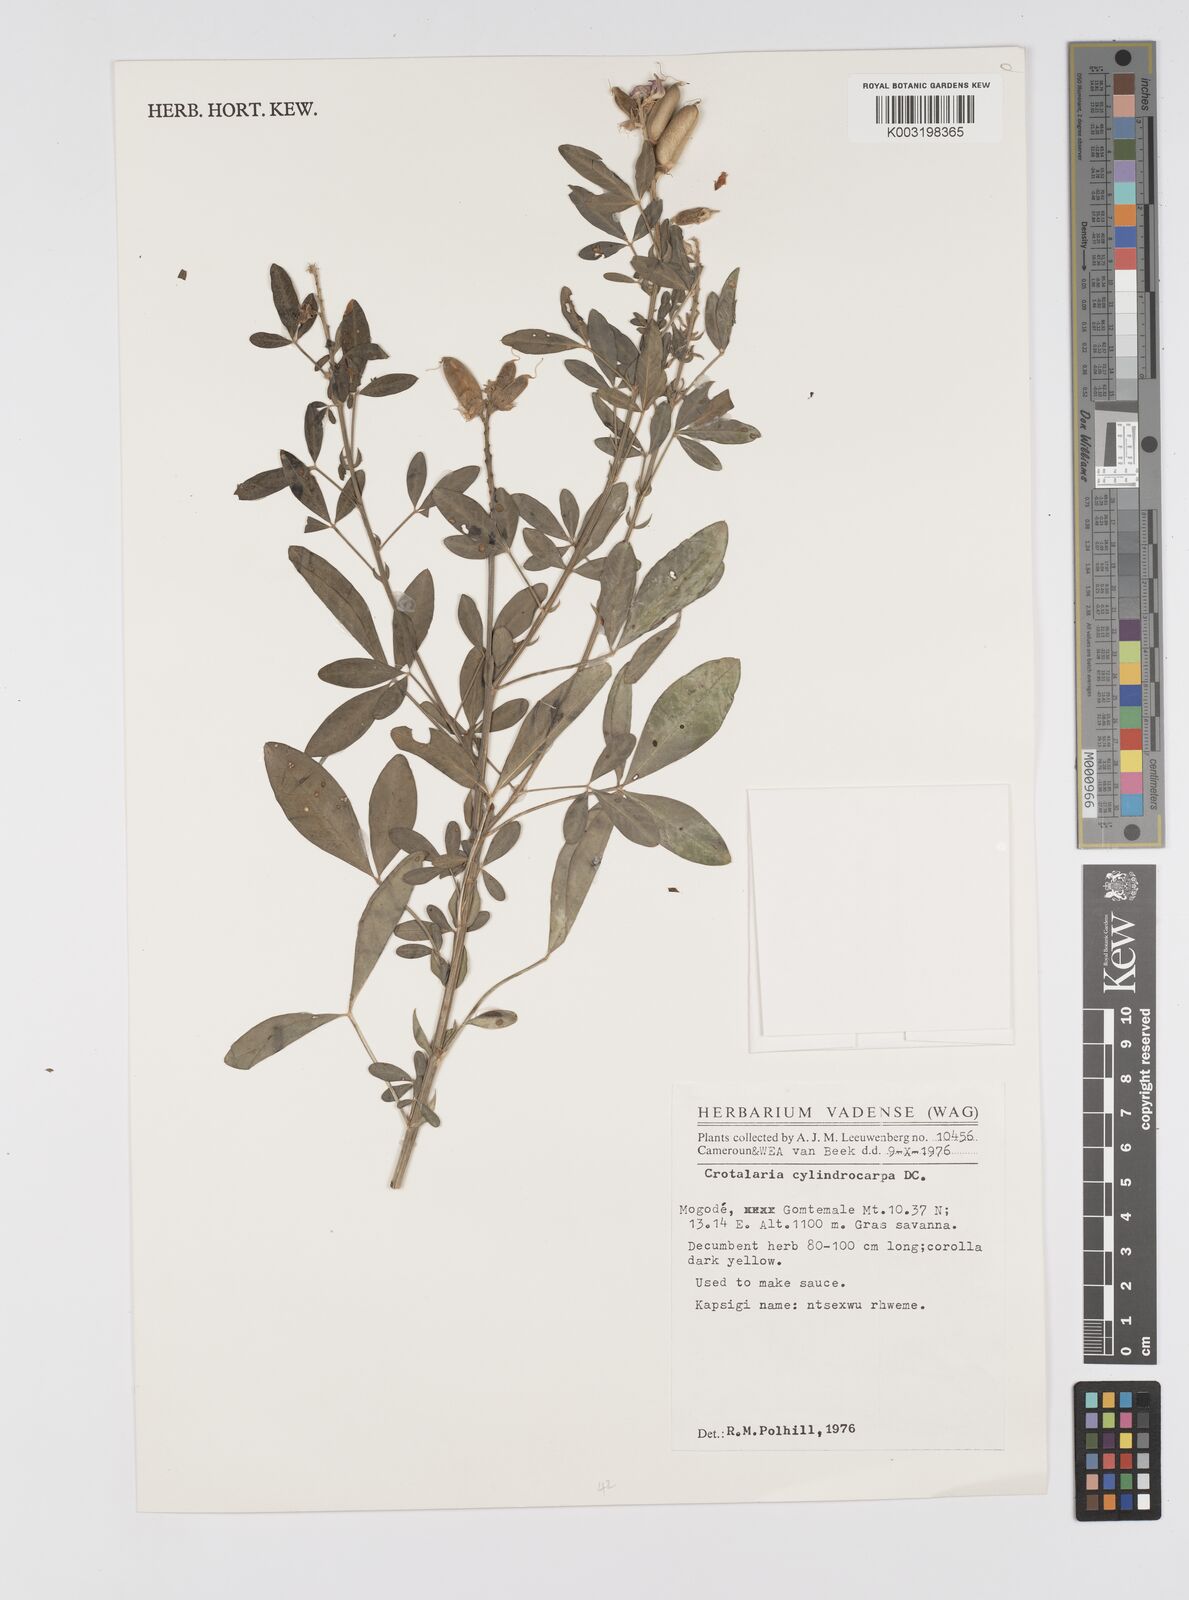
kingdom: Plantae
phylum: Tracheophyta
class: Magnoliopsida
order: Fabales
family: Fabaceae
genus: Crotalaria
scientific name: Crotalaria cylindrocarpa
